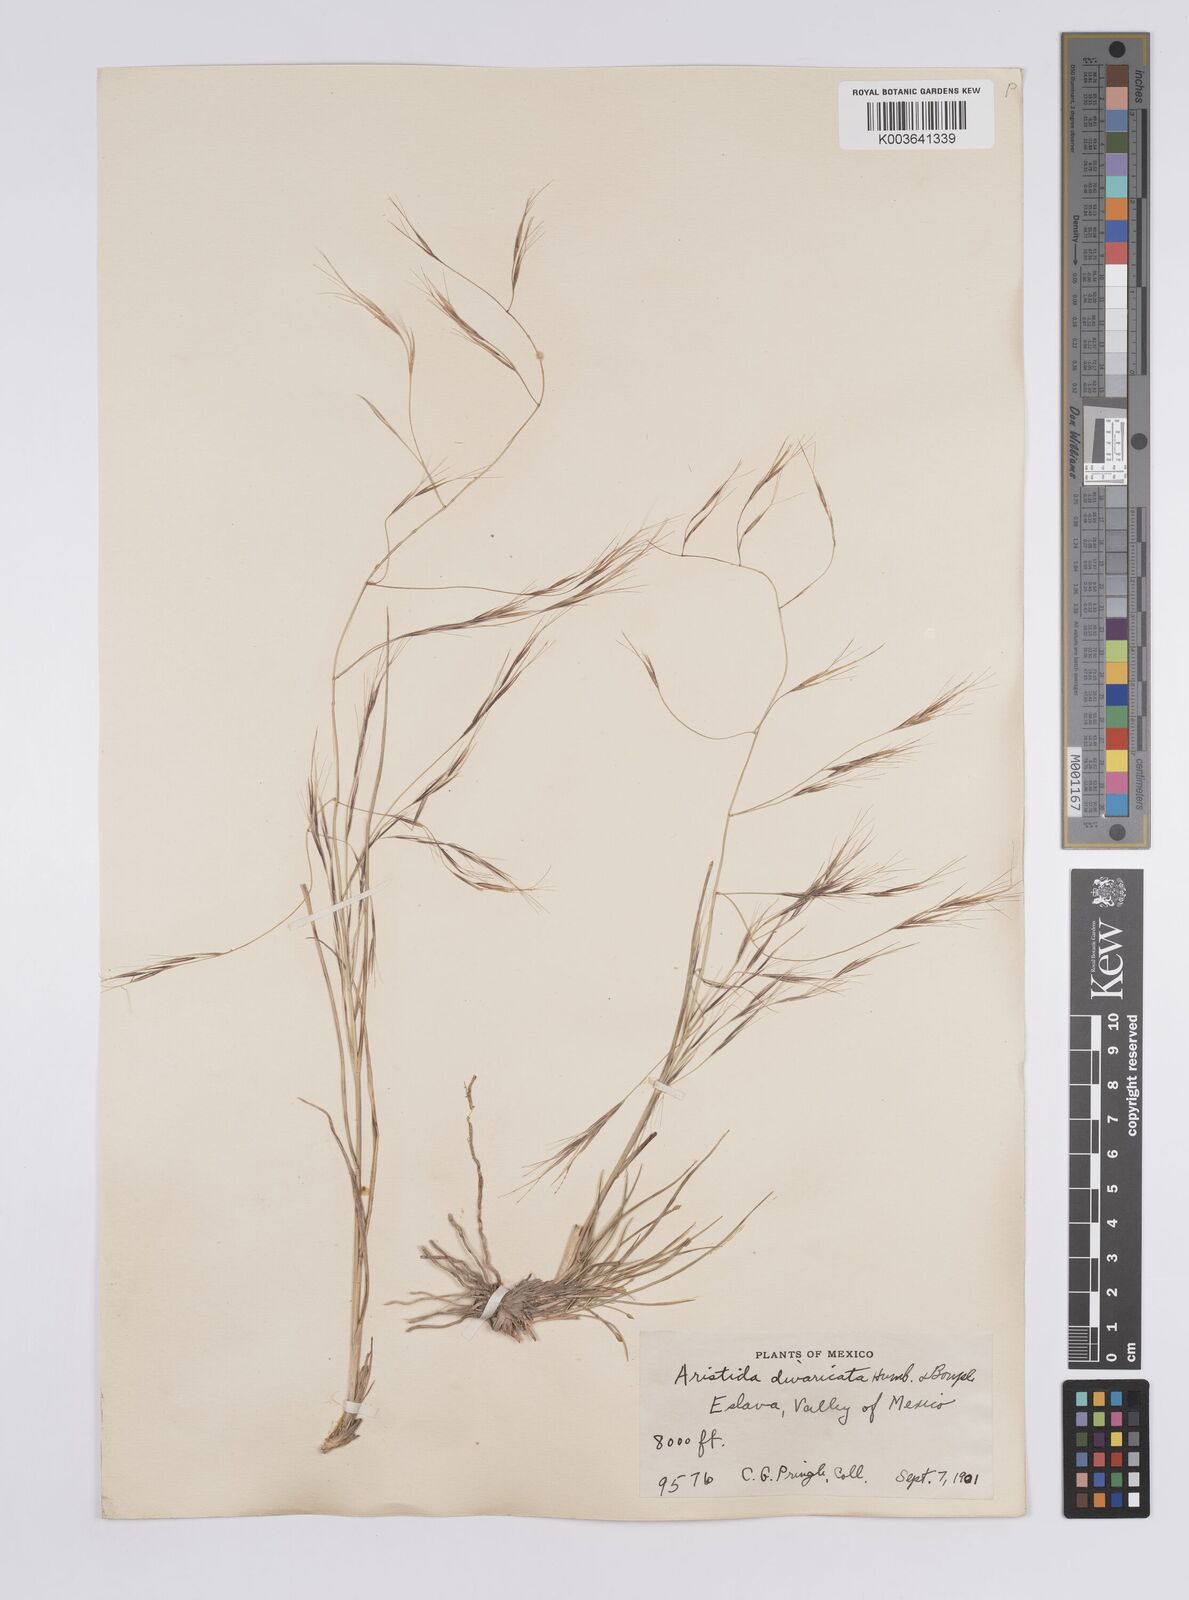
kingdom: Plantae
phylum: Tracheophyta
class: Liliopsida
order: Poales
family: Poaceae
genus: Aristida
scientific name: Aristida divaricata
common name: Poverty grass
